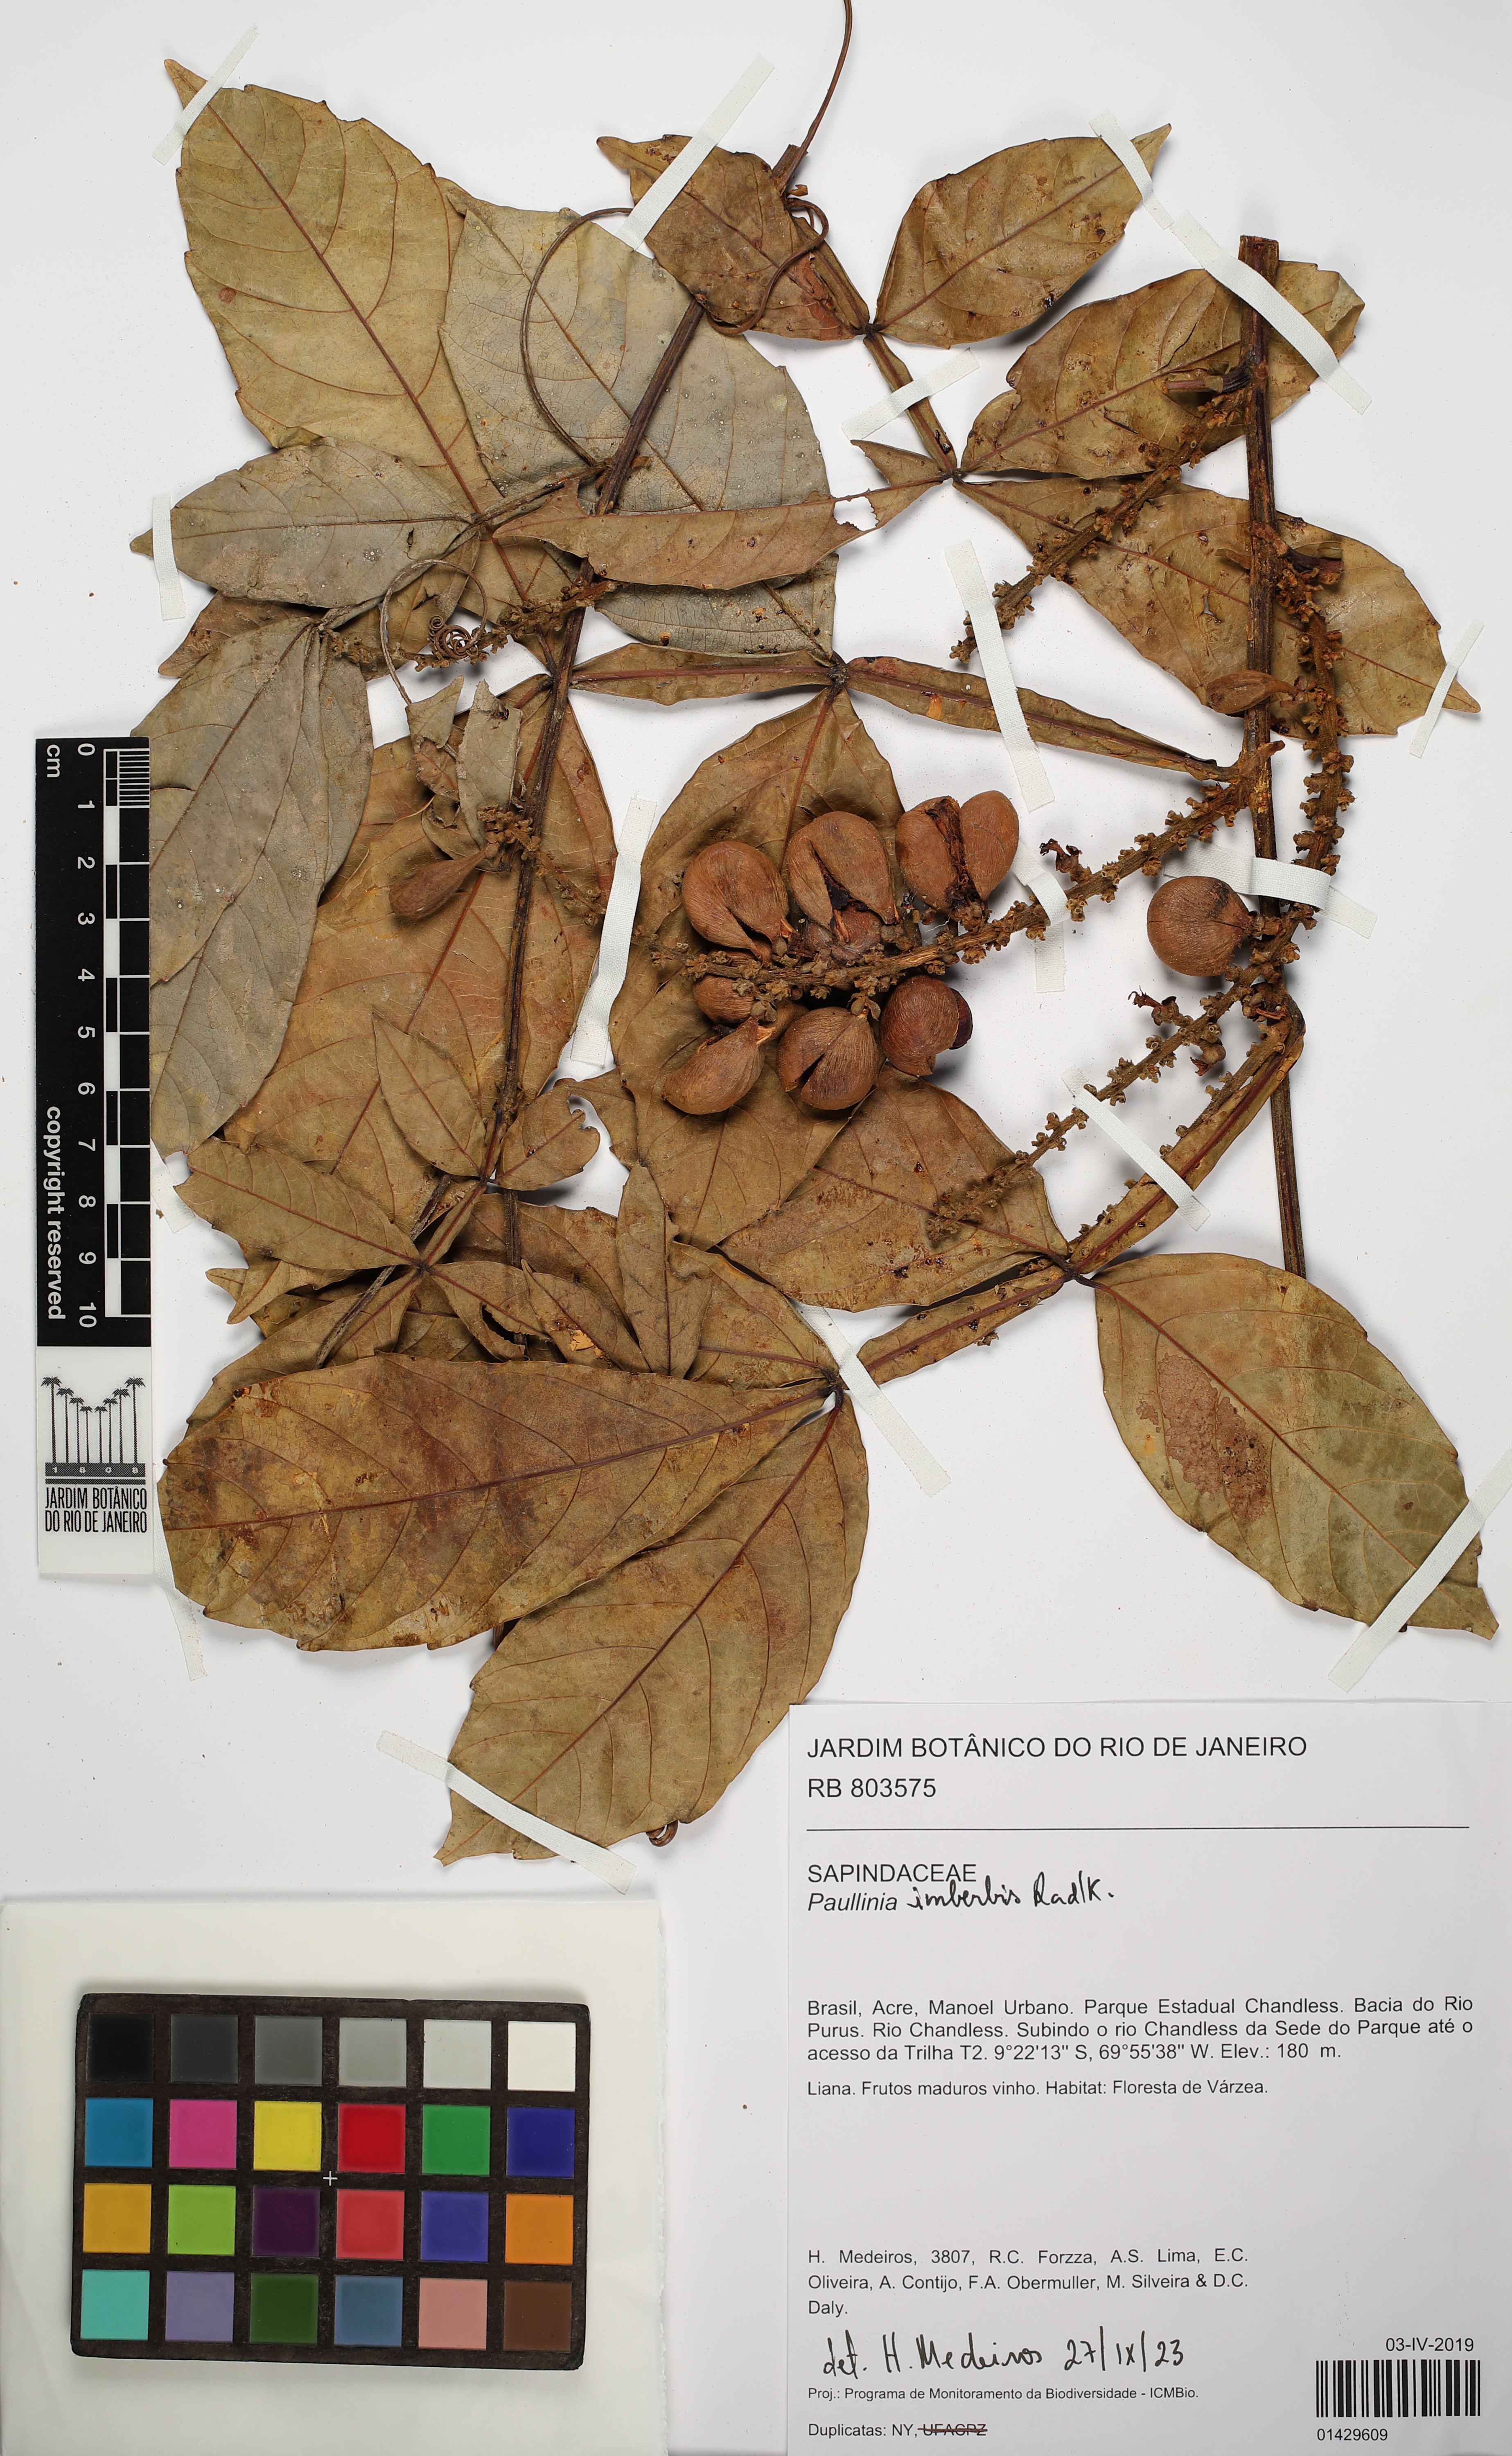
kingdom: Plantae
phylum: Tracheophyta
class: Magnoliopsida
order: Sapindales
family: Sapindaceae
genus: Paullinia
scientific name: Paullinia imberbis
